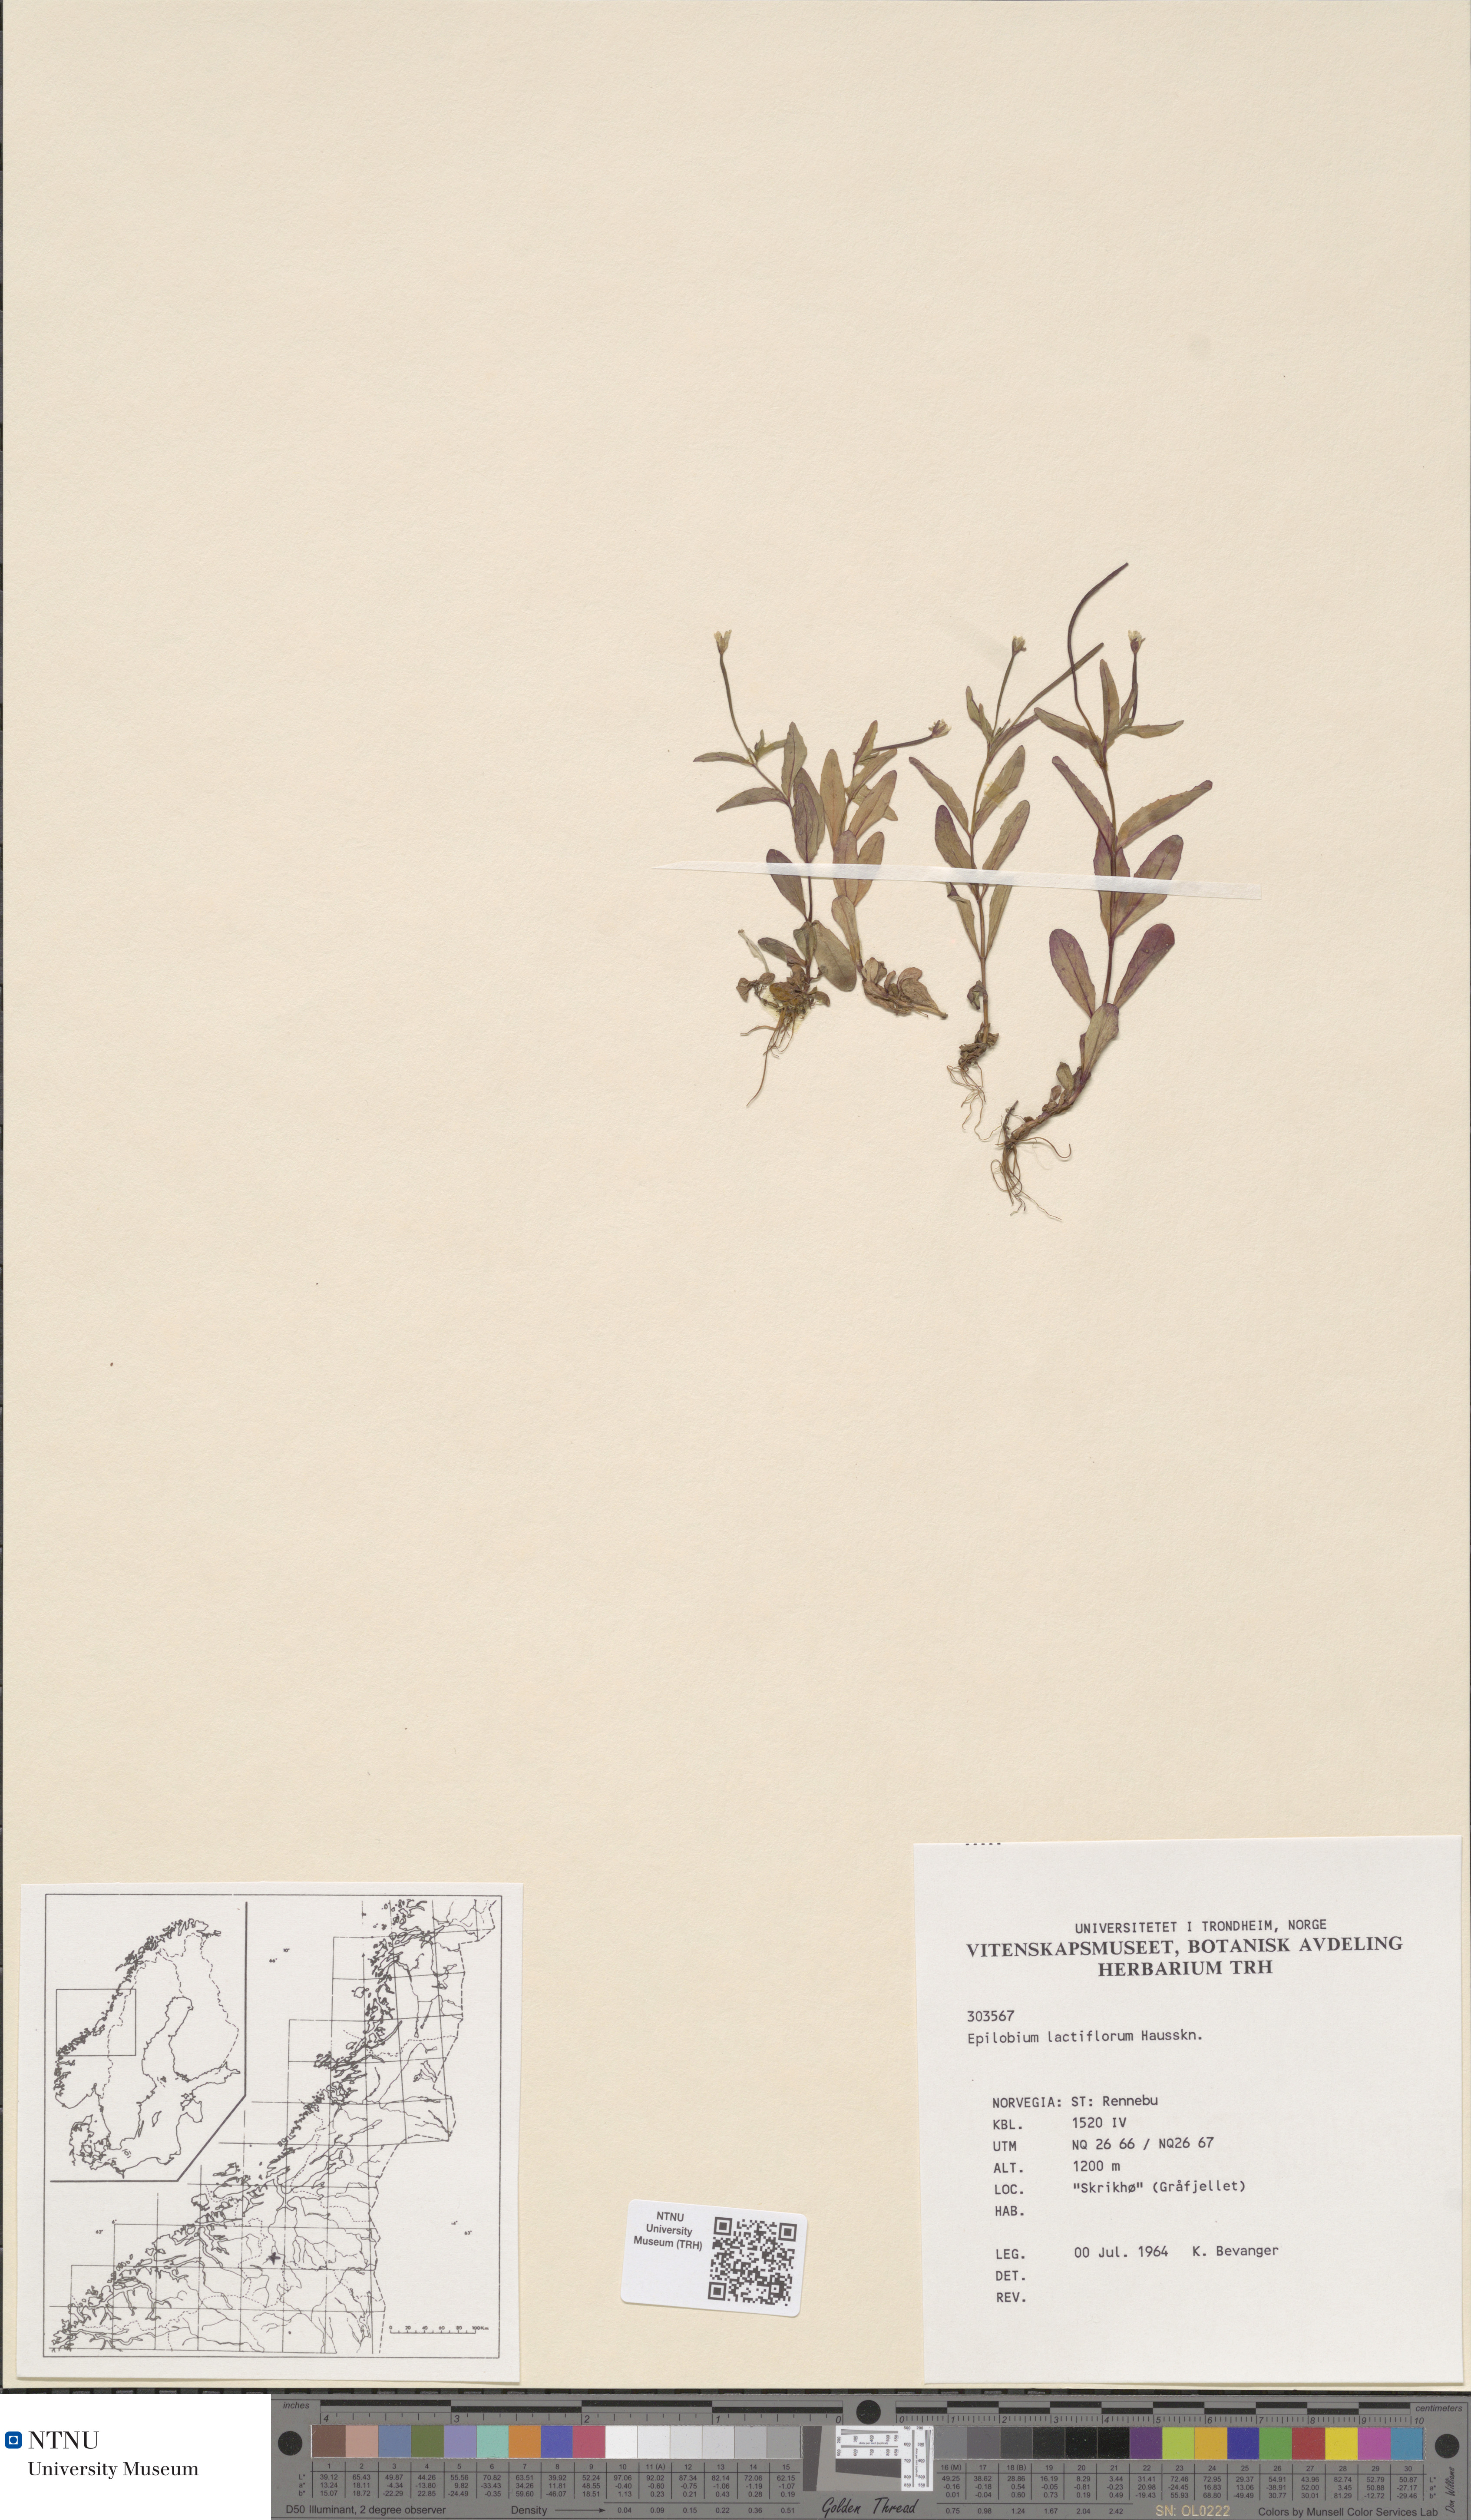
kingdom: Plantae
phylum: Tracheophyta
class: Magnoliopsida
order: Myrtales
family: Onagraceae
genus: Epilobium
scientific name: Epilobium lactiflorum
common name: Milkflower willowherb
